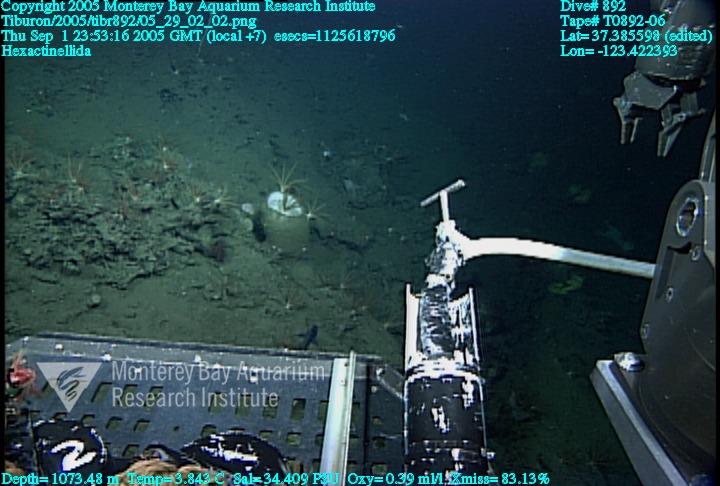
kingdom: Animalia
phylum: Porifera
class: Hexactinellida
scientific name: Hexactinellida
